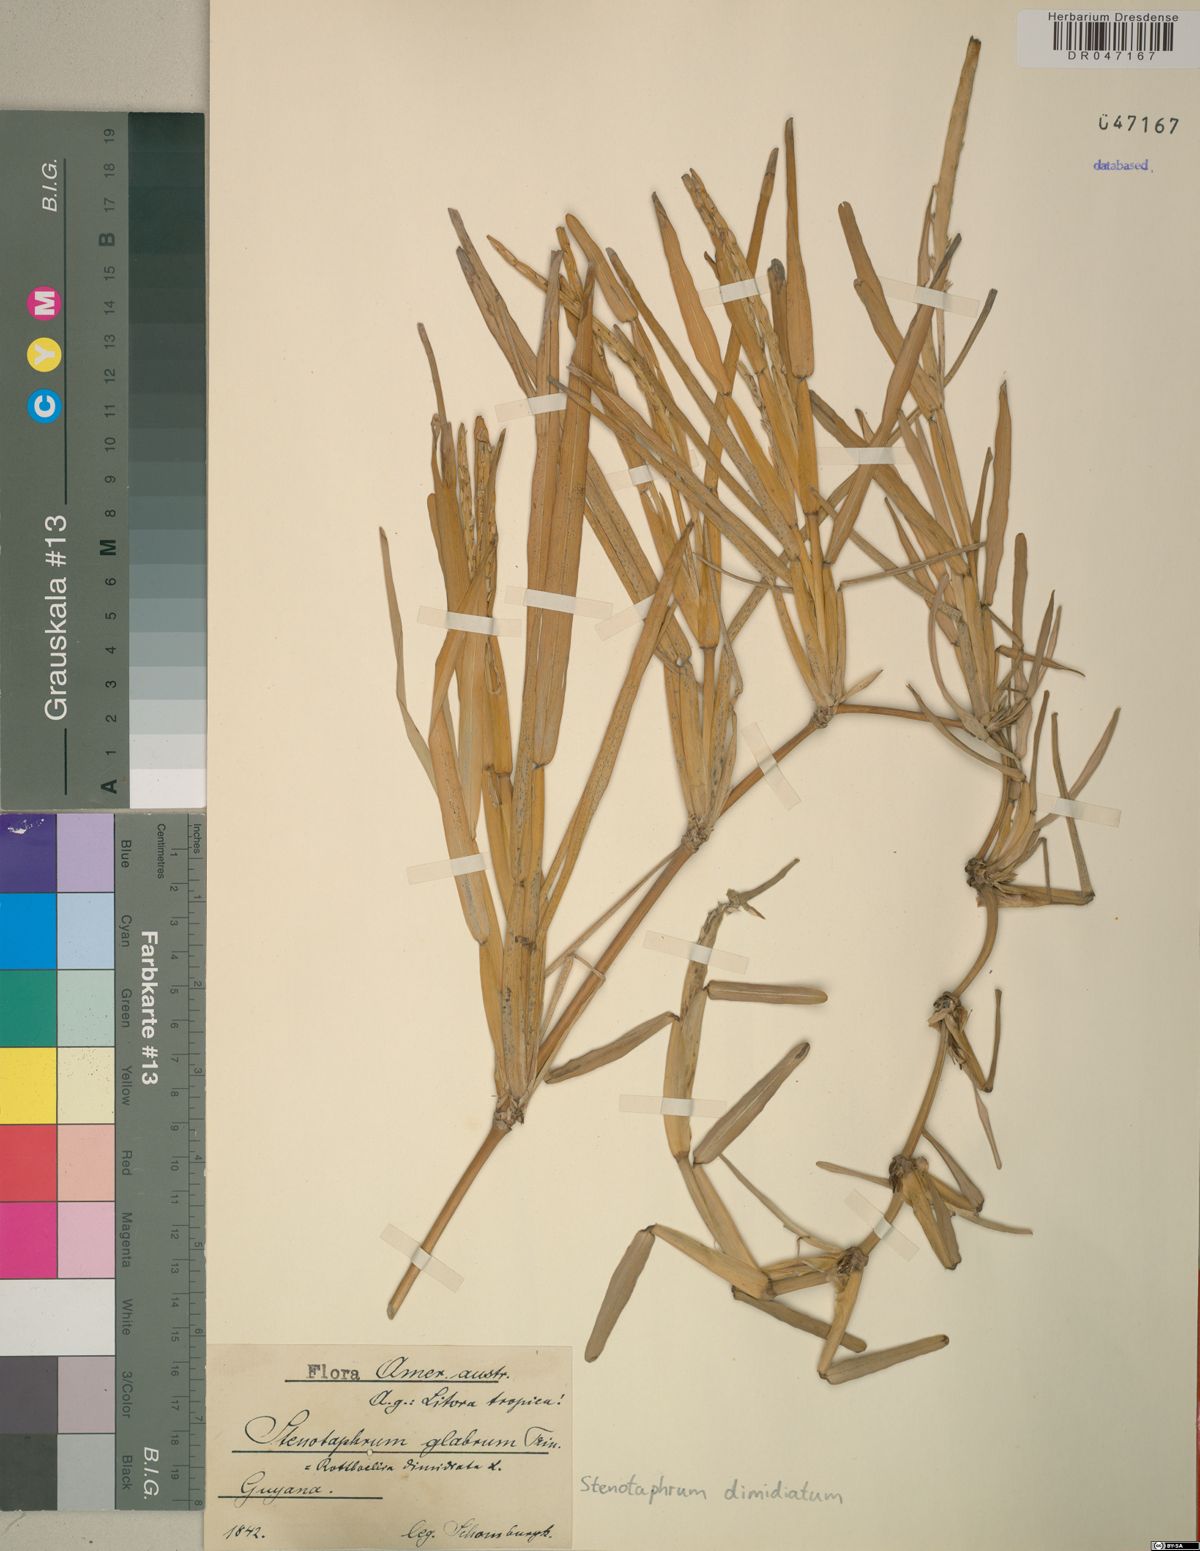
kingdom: Plantae
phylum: Tracheophyta
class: Liliopsida
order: Poales
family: Poaceae
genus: Stenotaphrum
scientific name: Stenotaphrum dimidiatum
